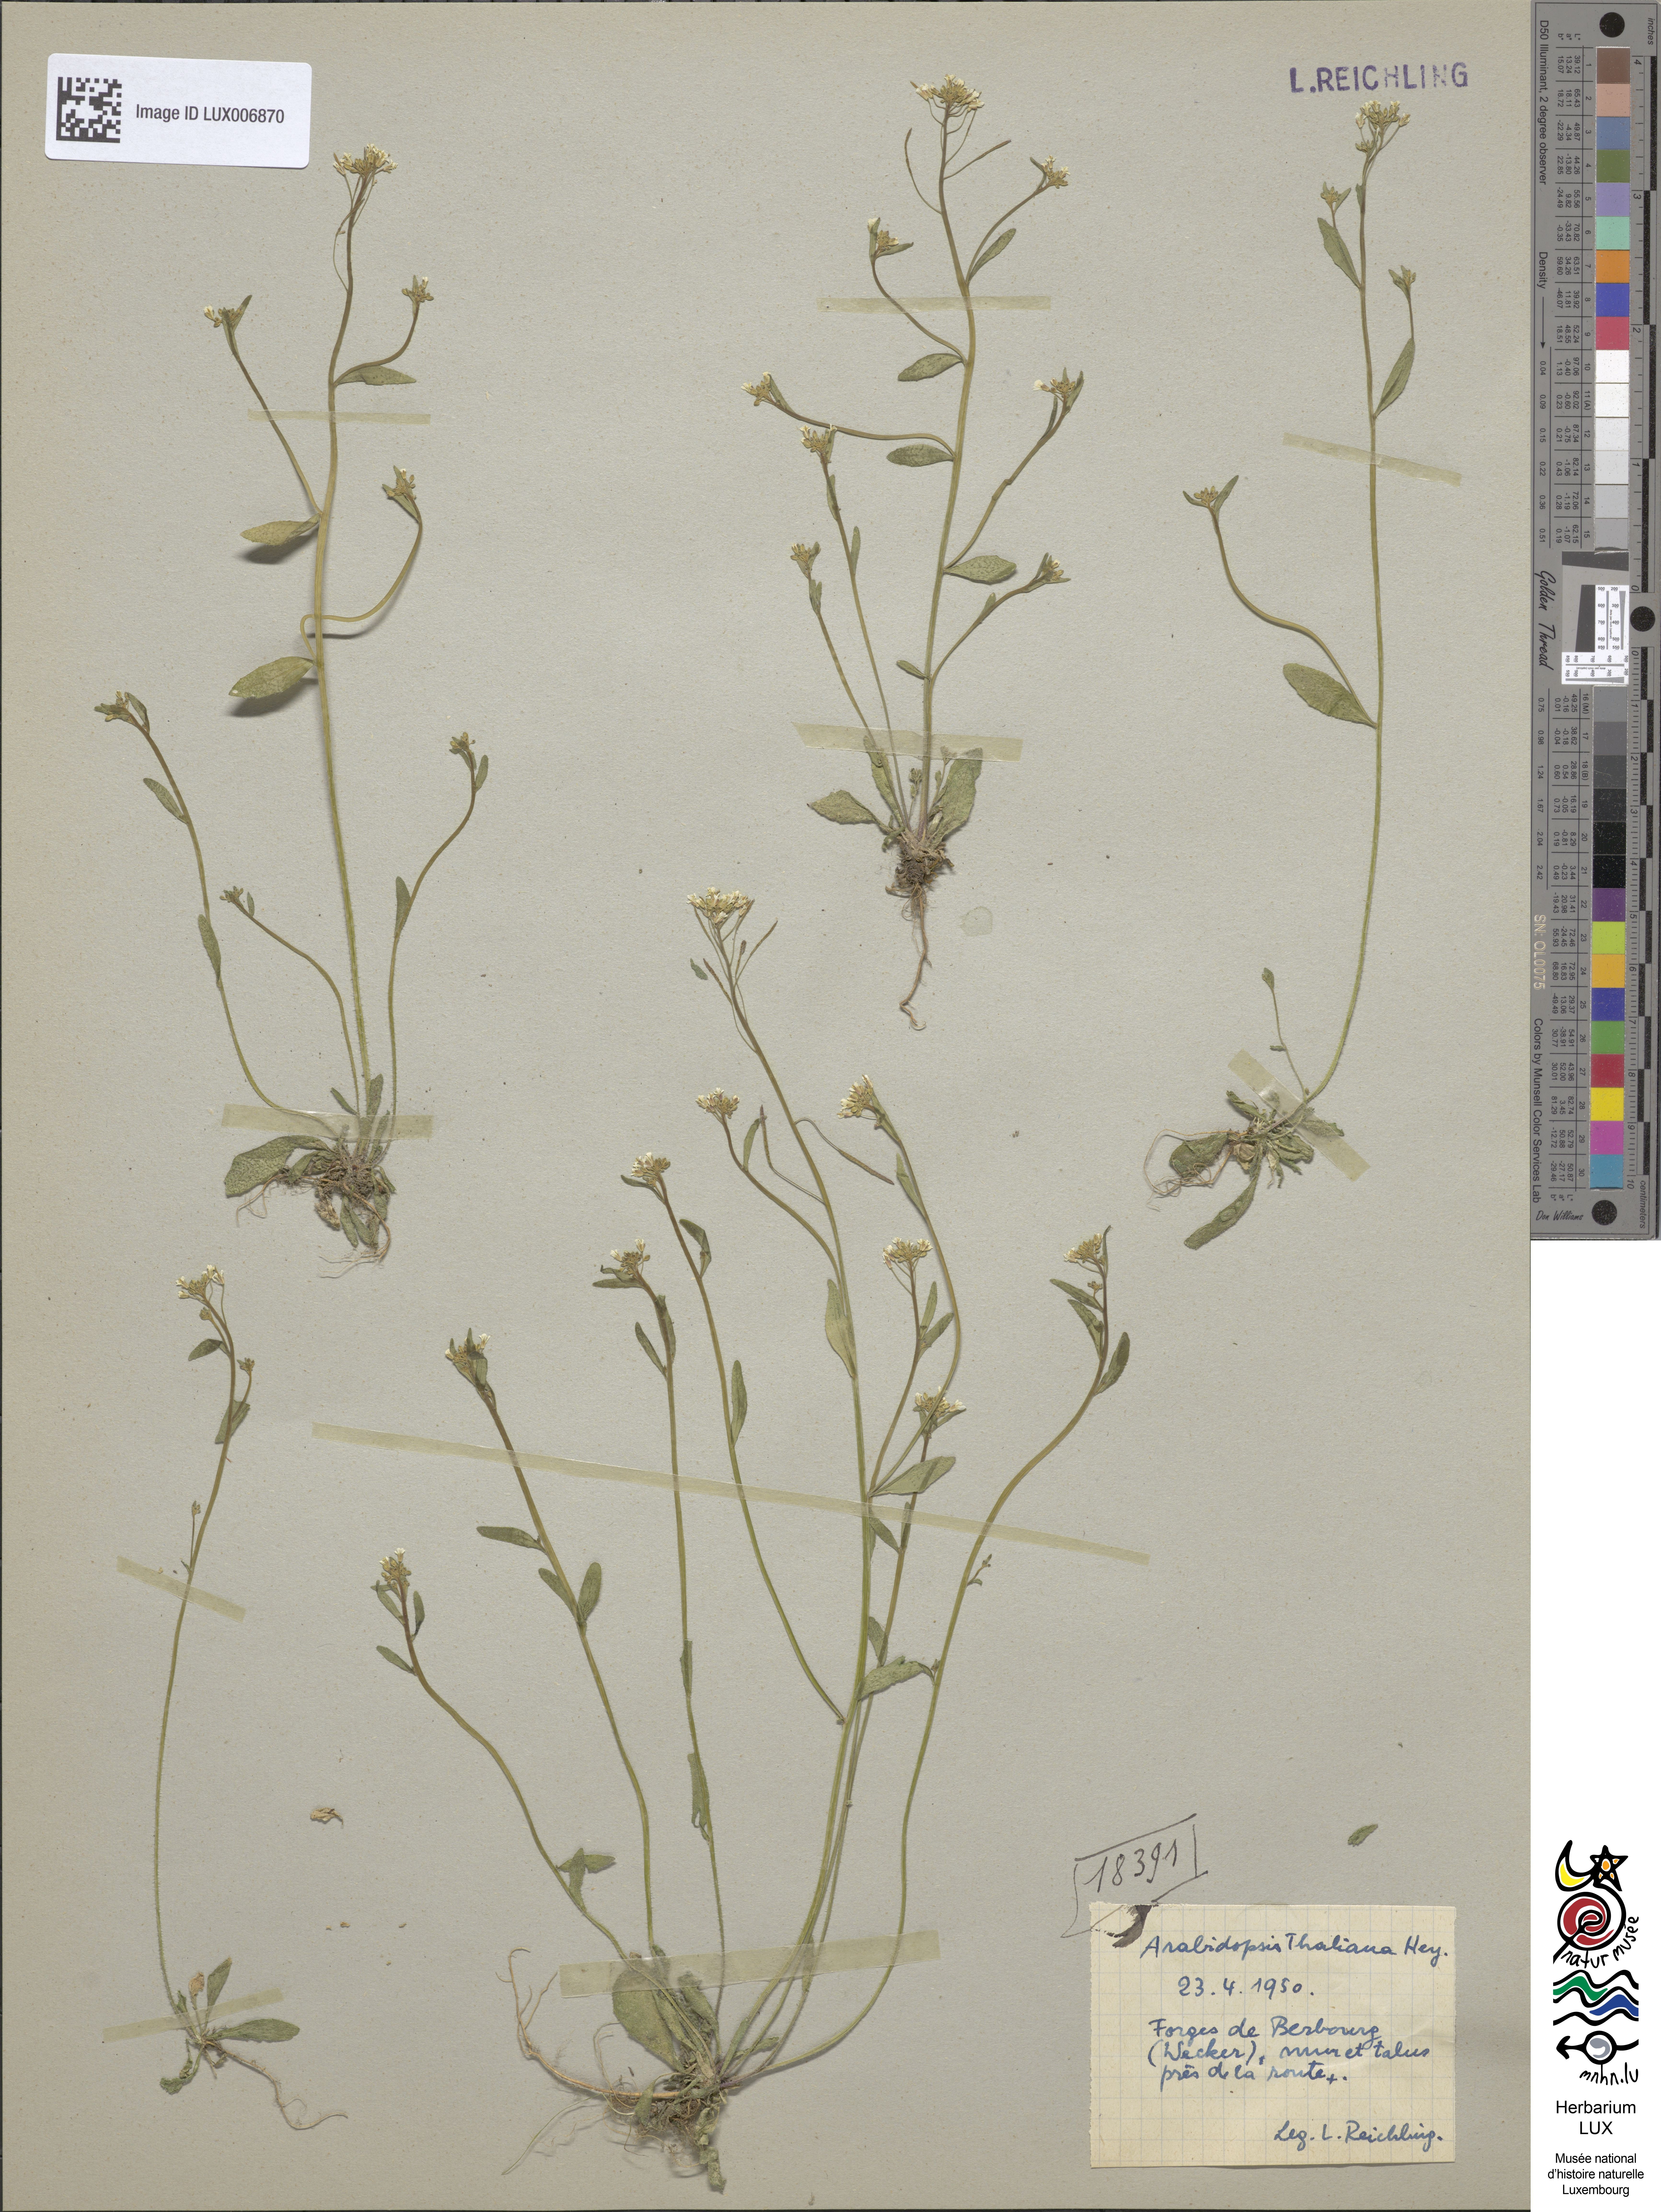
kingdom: Plantae
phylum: Tracheophyta
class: Magnoliopsida
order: Brassicales
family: Brassicaceae
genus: Arabidopsis
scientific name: Arabidopsis thaliana
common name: Thale cress
